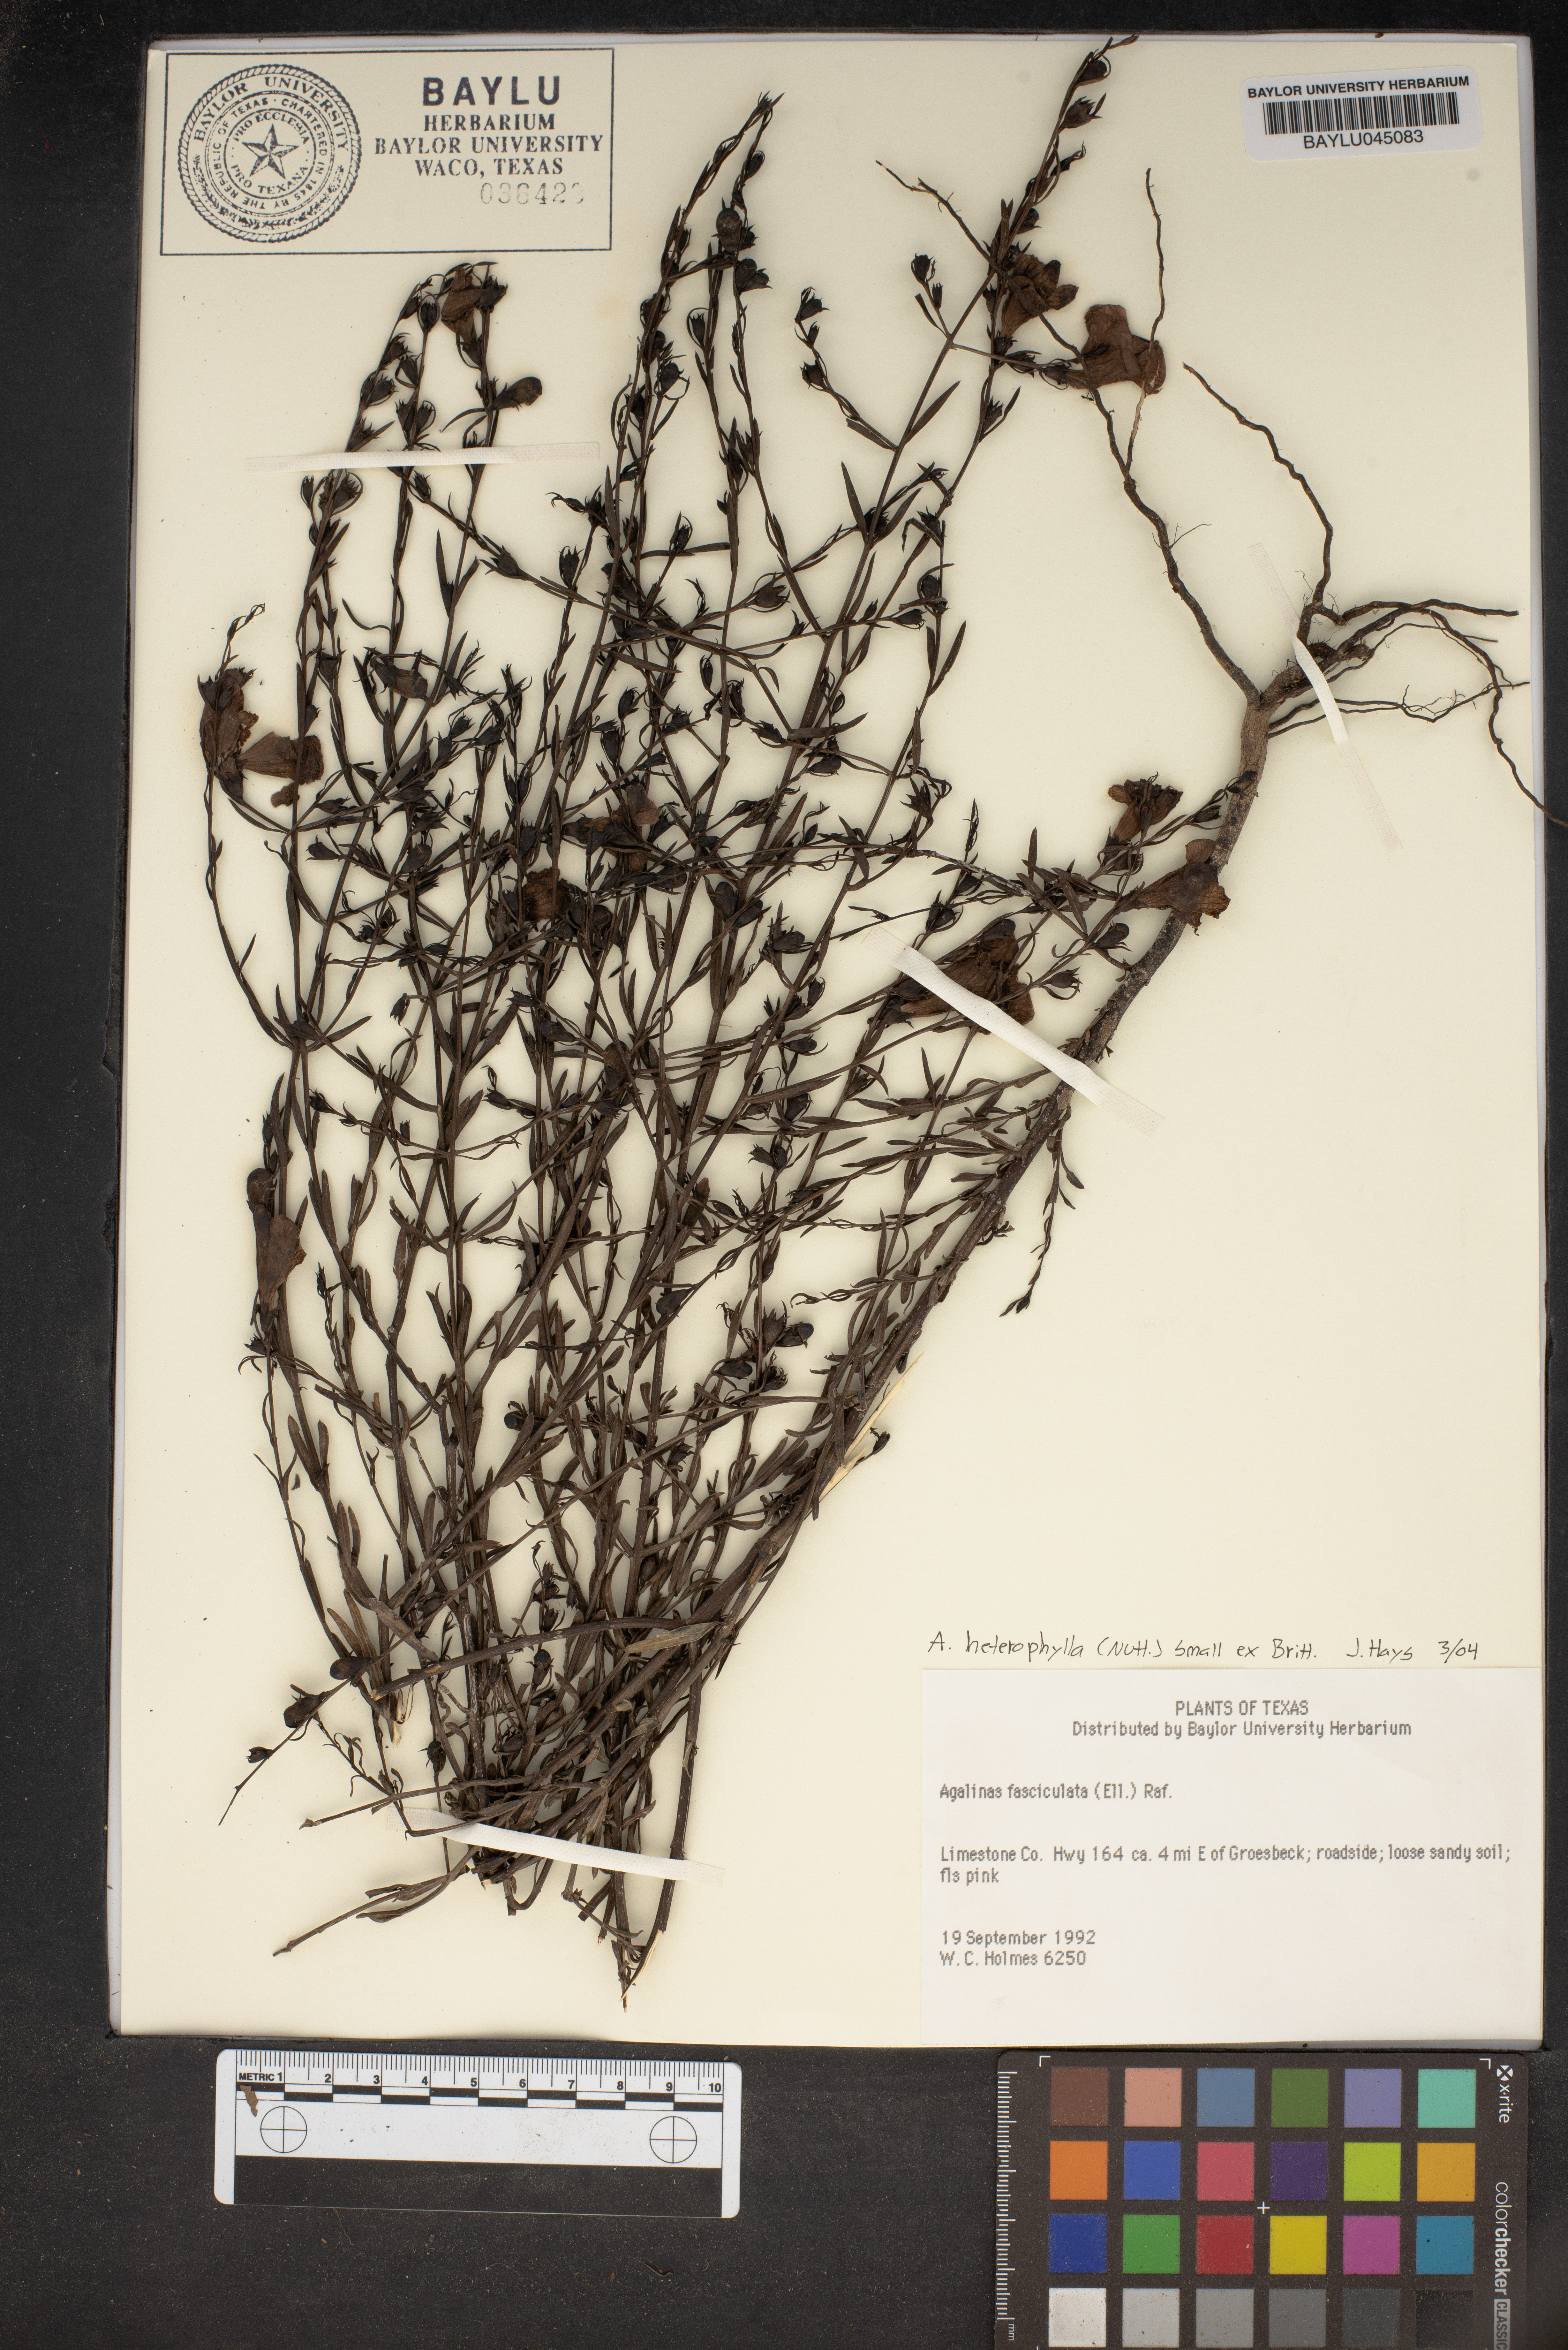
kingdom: Plantae
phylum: Tracheophyta
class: Magnoliopsida
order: Lamiales
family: Orobanchaceae
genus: Agalinis
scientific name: Agalinis fasciculata
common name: Beach false foxglove
